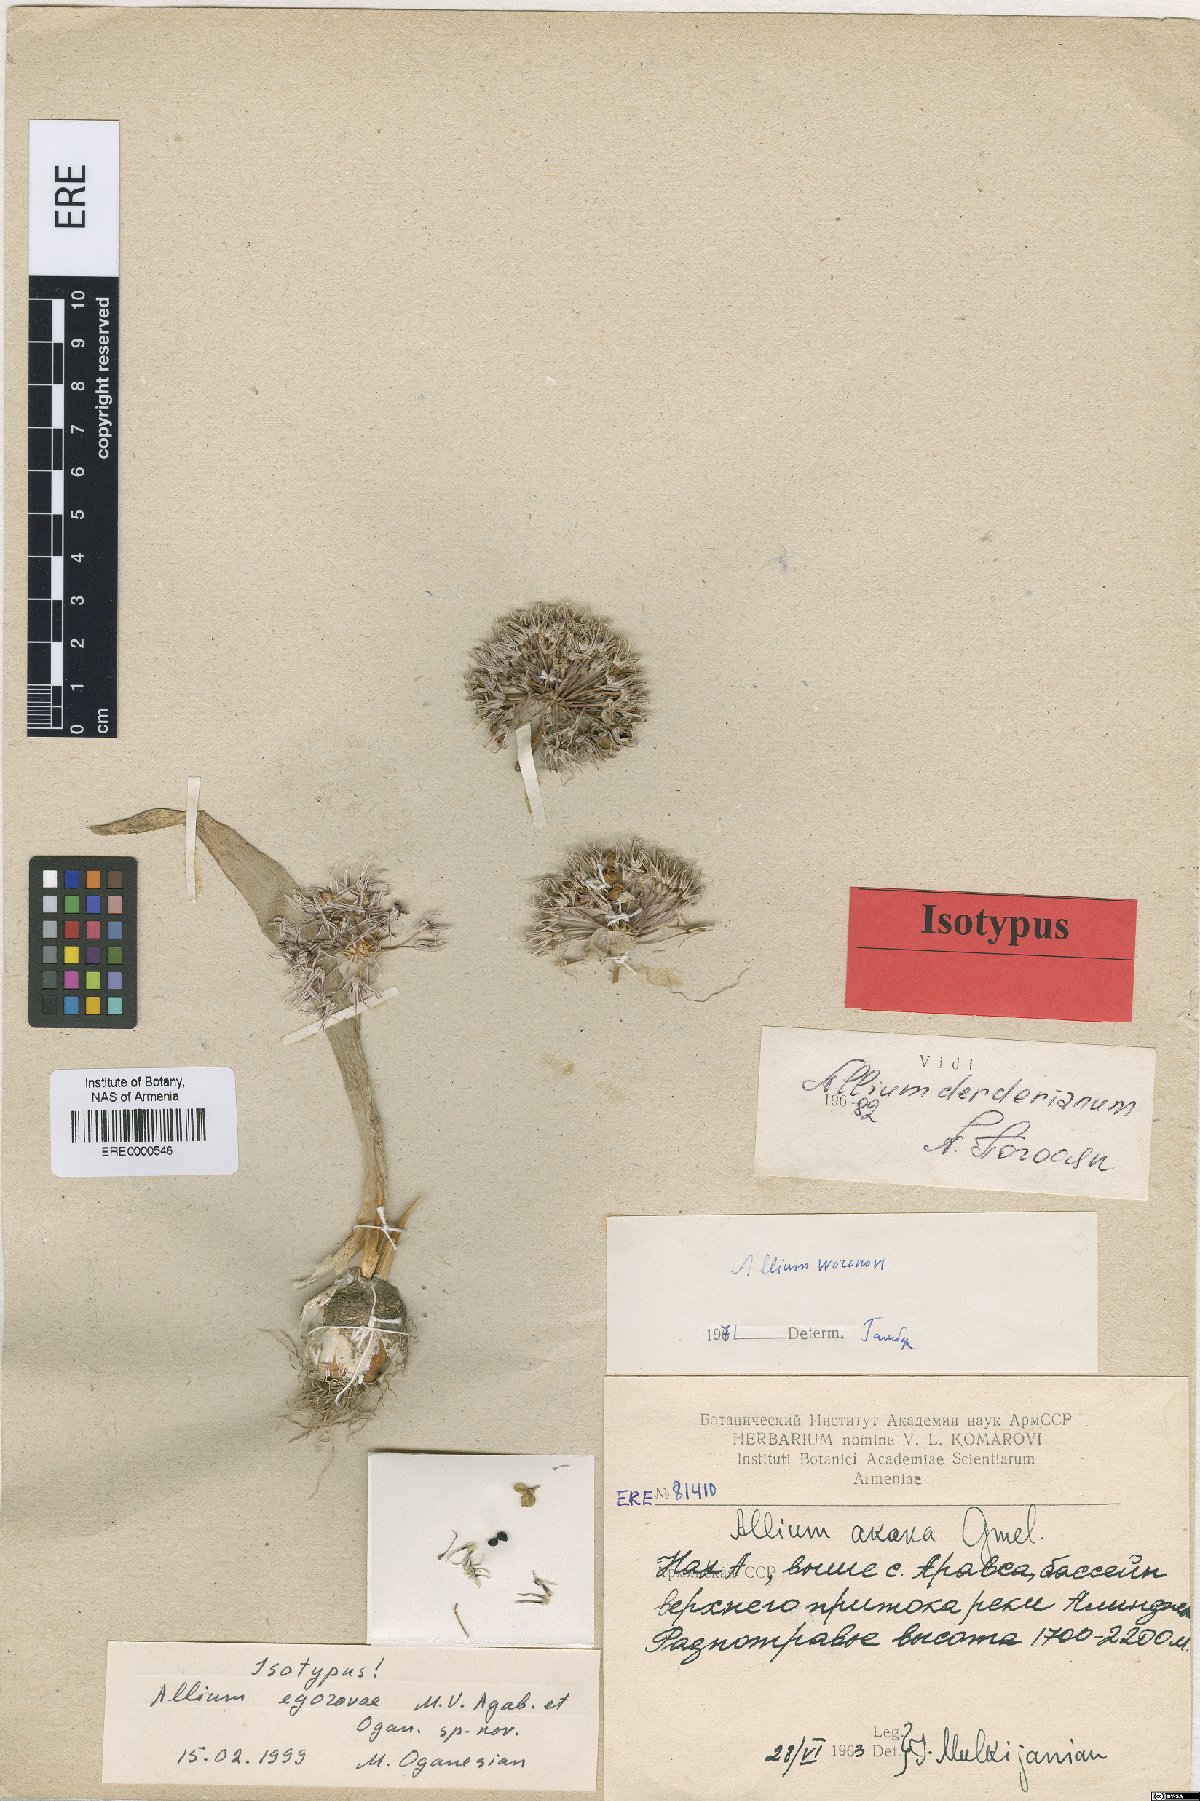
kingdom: Plantae
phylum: Tracheophyta
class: Liliopsida
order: Asparagales
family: Amaryllidaceae
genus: Allium
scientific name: Allium egorovae
